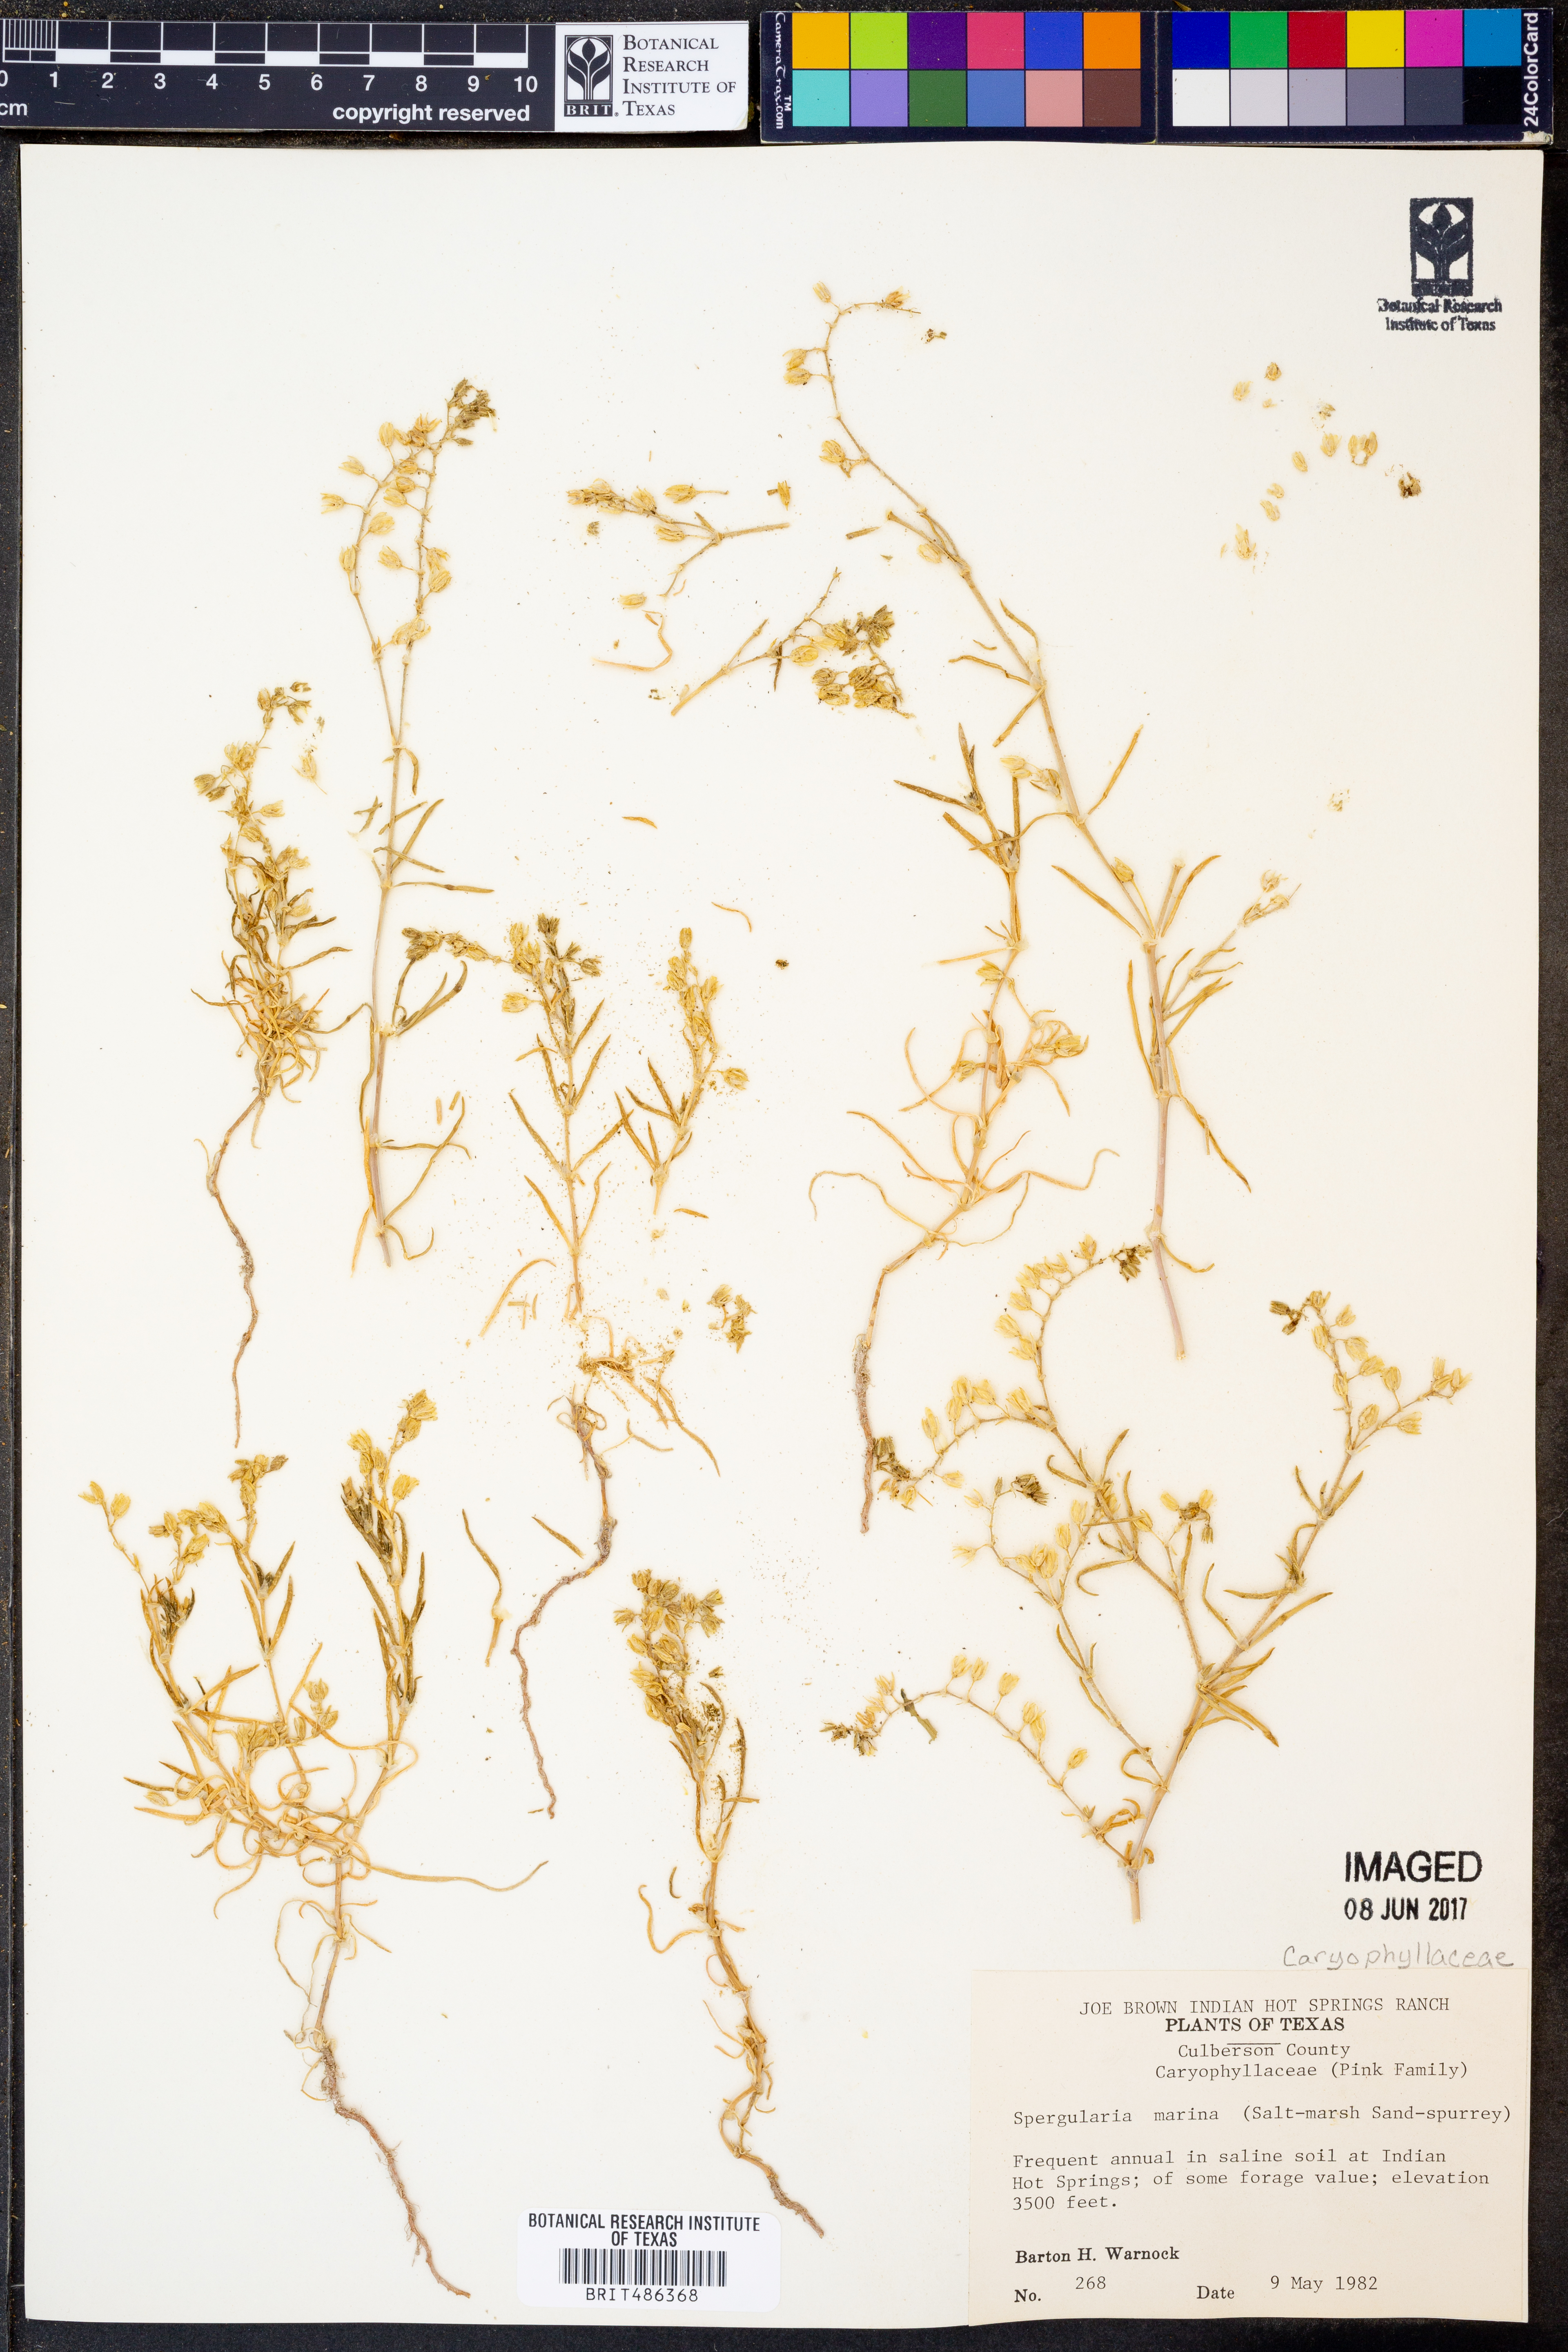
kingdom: Plantae
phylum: Tracheophyta
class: Magnoliopsida
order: Caryophyllales
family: Caryophyllaceae
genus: Spergularia
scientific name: Spergularia marina
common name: Lesser sea-spurrey
